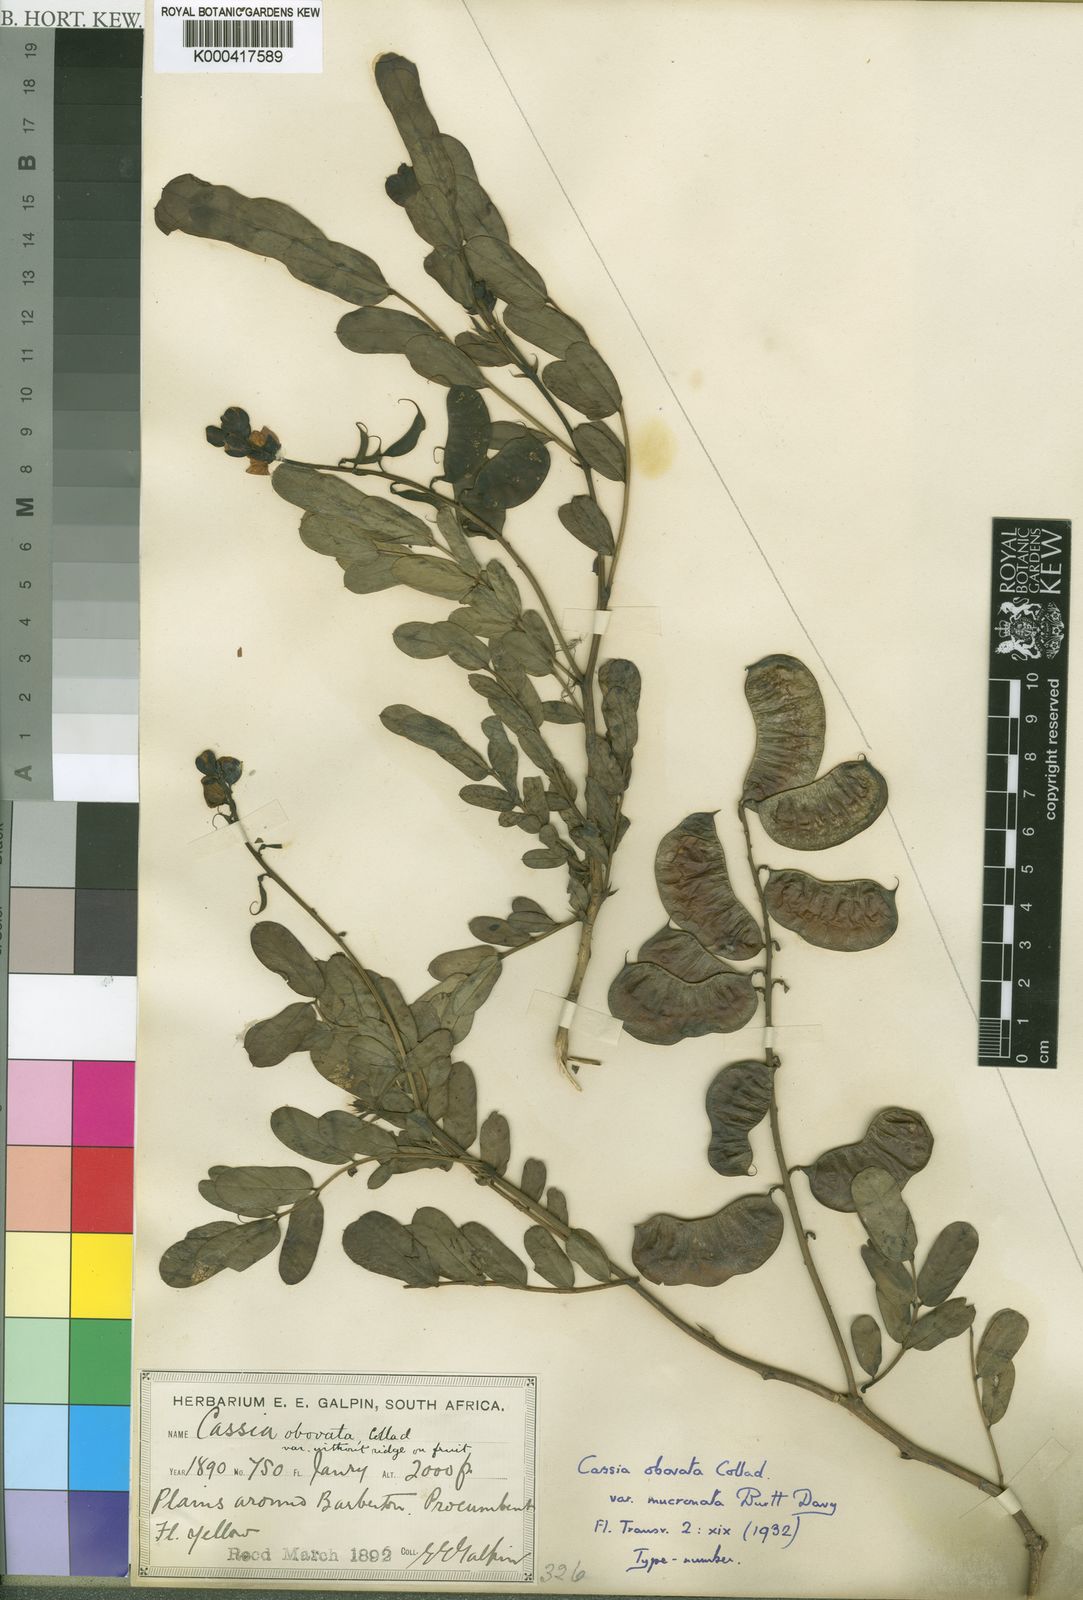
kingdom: Plantae
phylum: Tracheophyta
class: Magnoliopsida
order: Fabales
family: Fabaceae
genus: Cassia
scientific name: Cassia
